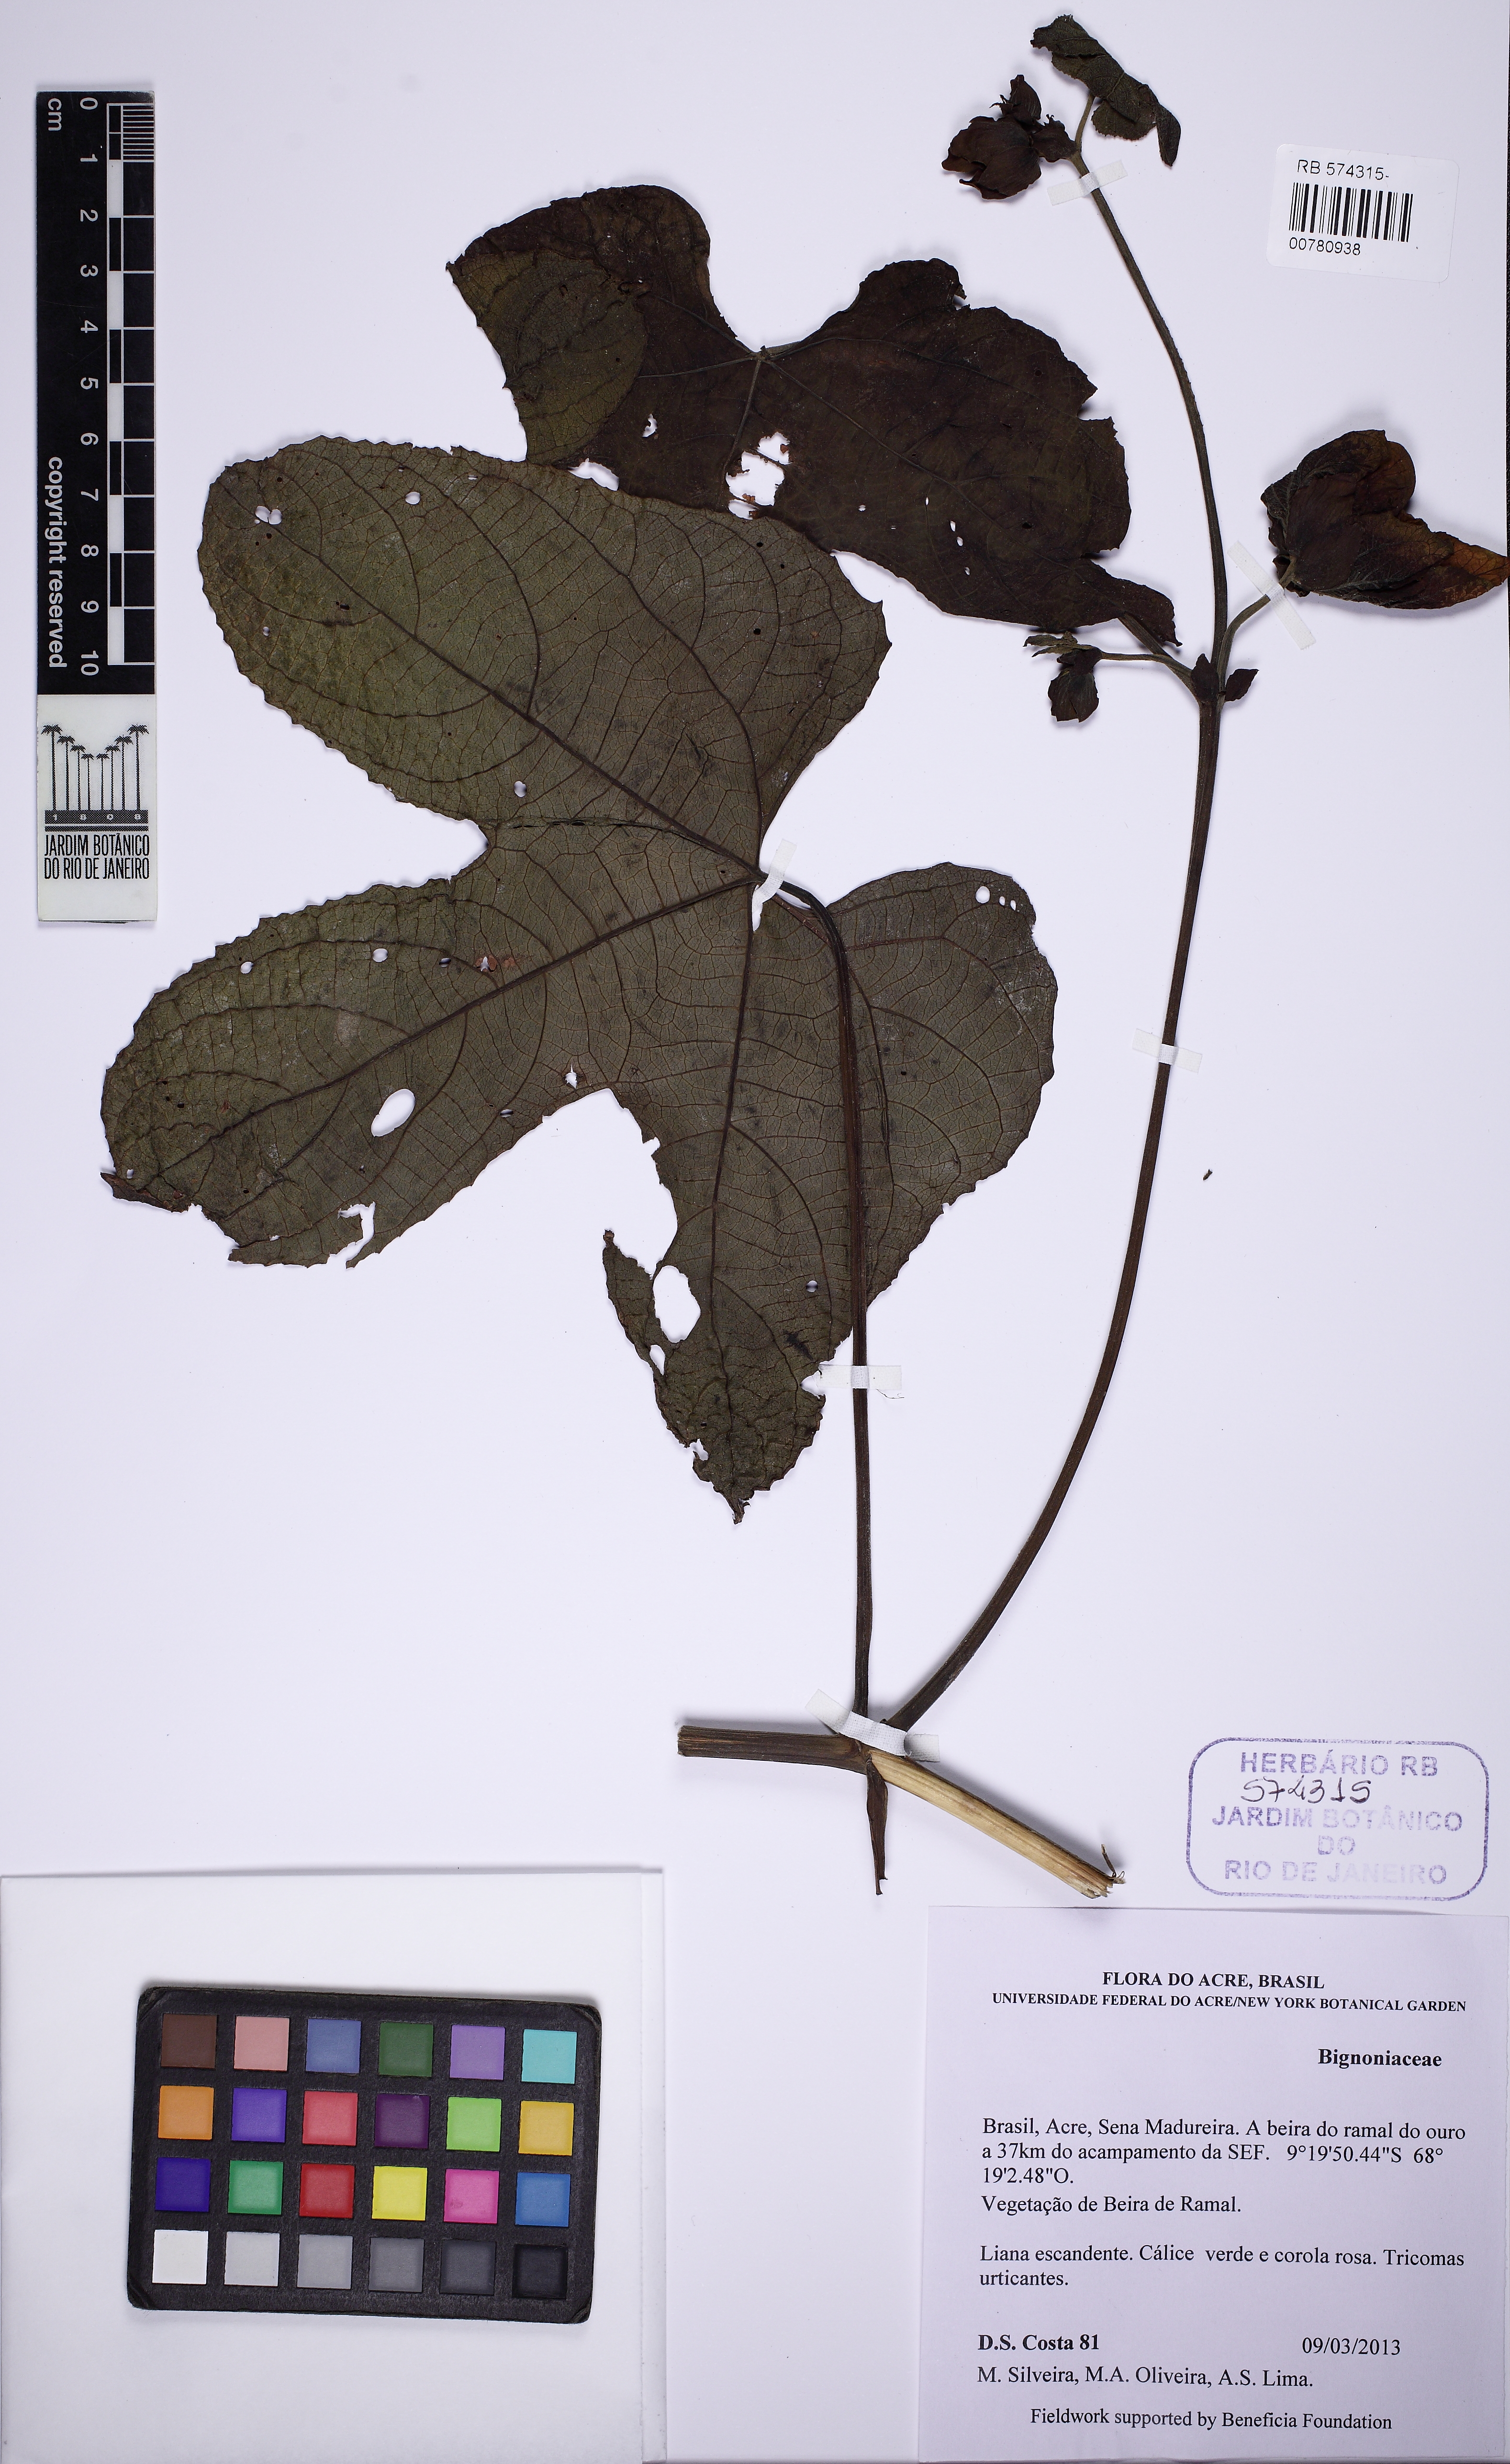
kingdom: Plantae
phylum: Tracheophyta
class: Magnoliopsida
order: Malpighiales
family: Euphorbiaceae
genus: Dalechampia
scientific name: Dalechampia cujabensis
